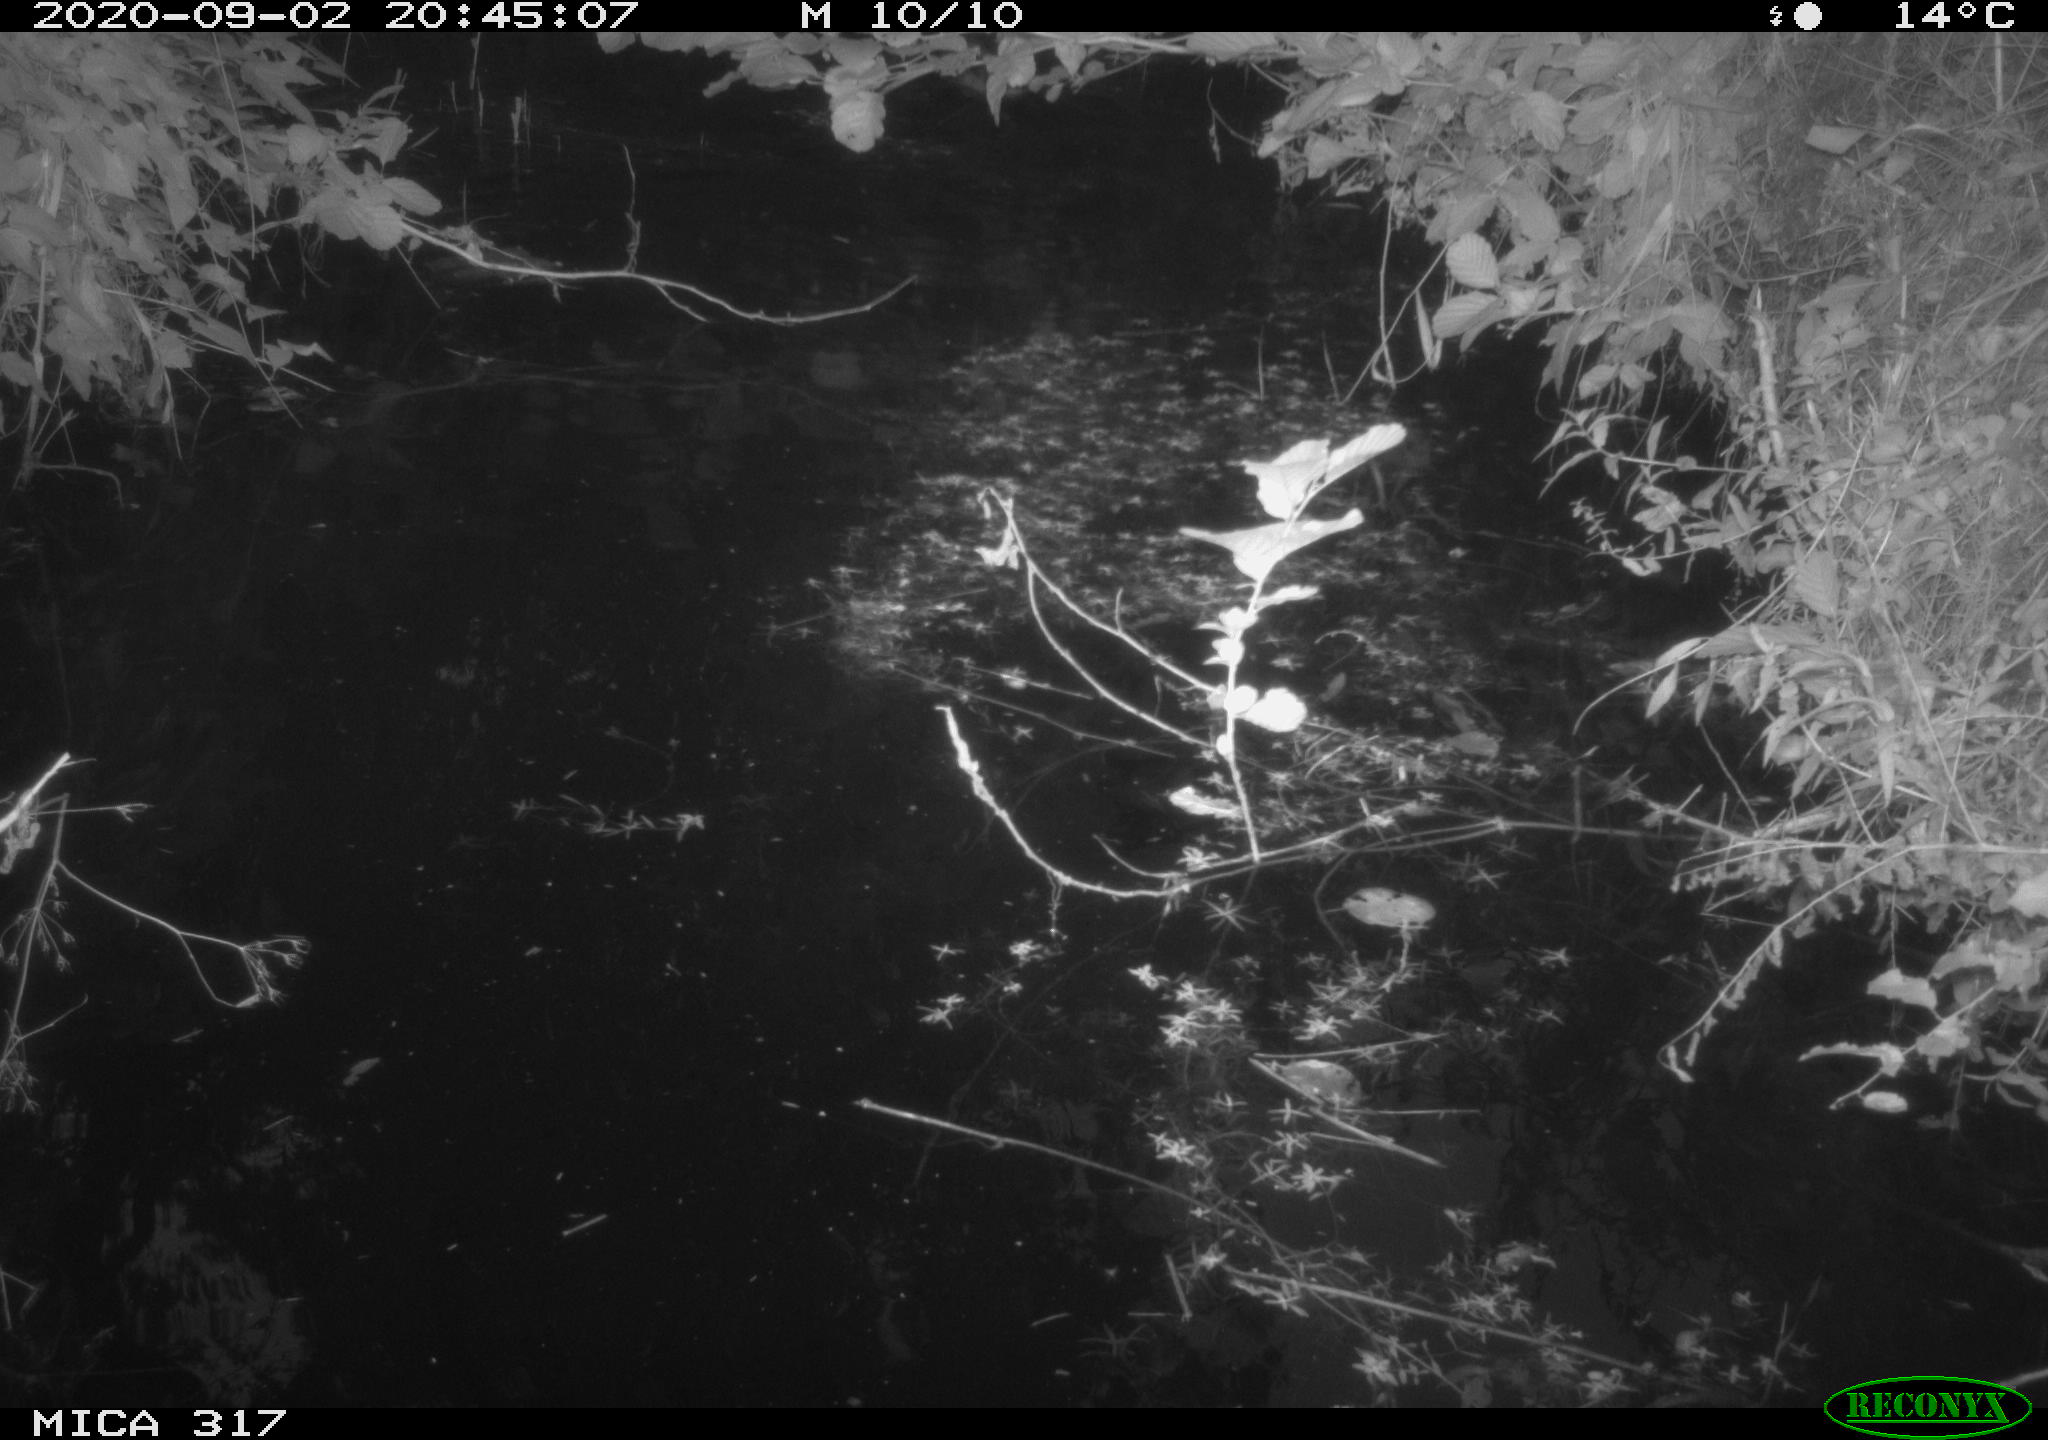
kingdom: Animalia
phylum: Chordata
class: Aves
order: Anseriformes
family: Anatidae
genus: Anas
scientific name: Anas platyrhynchos
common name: Mallard
